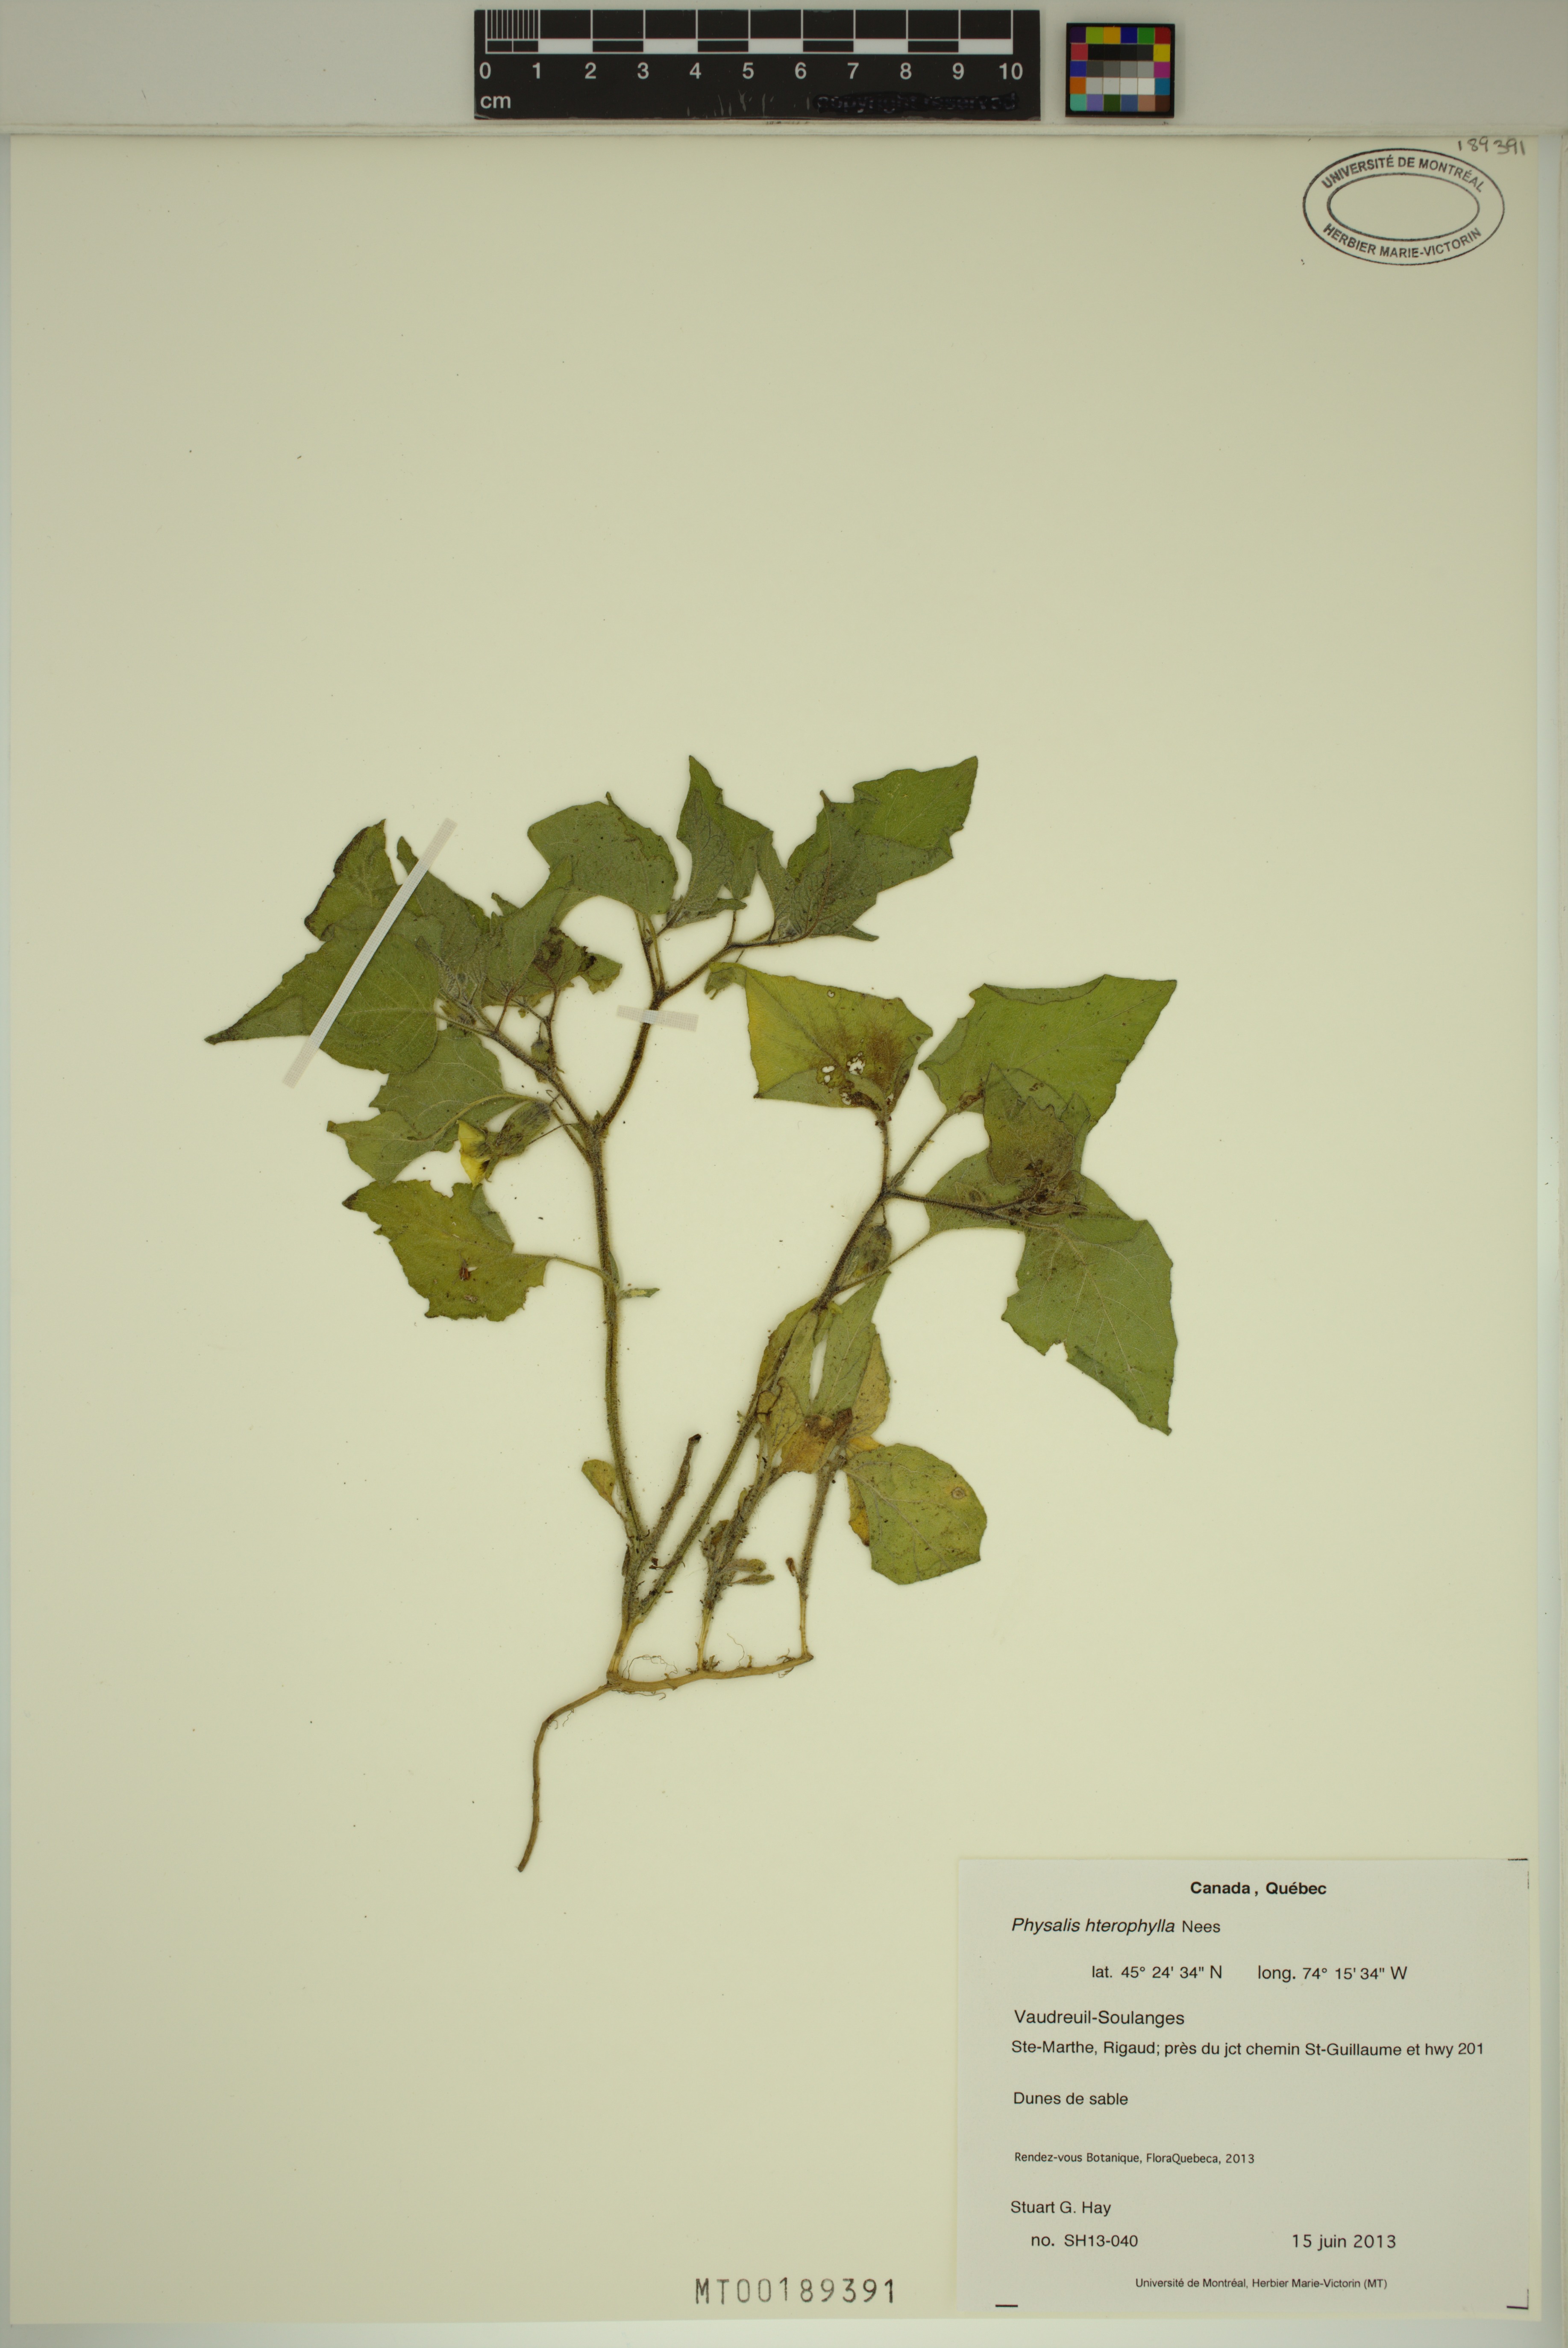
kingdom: Plantae
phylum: Tracheophyta
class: Magnoliopsida
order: Solanales
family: Solanaceae
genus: Physalis
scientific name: Physalis heterophylla
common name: Clammy ground-cherry
